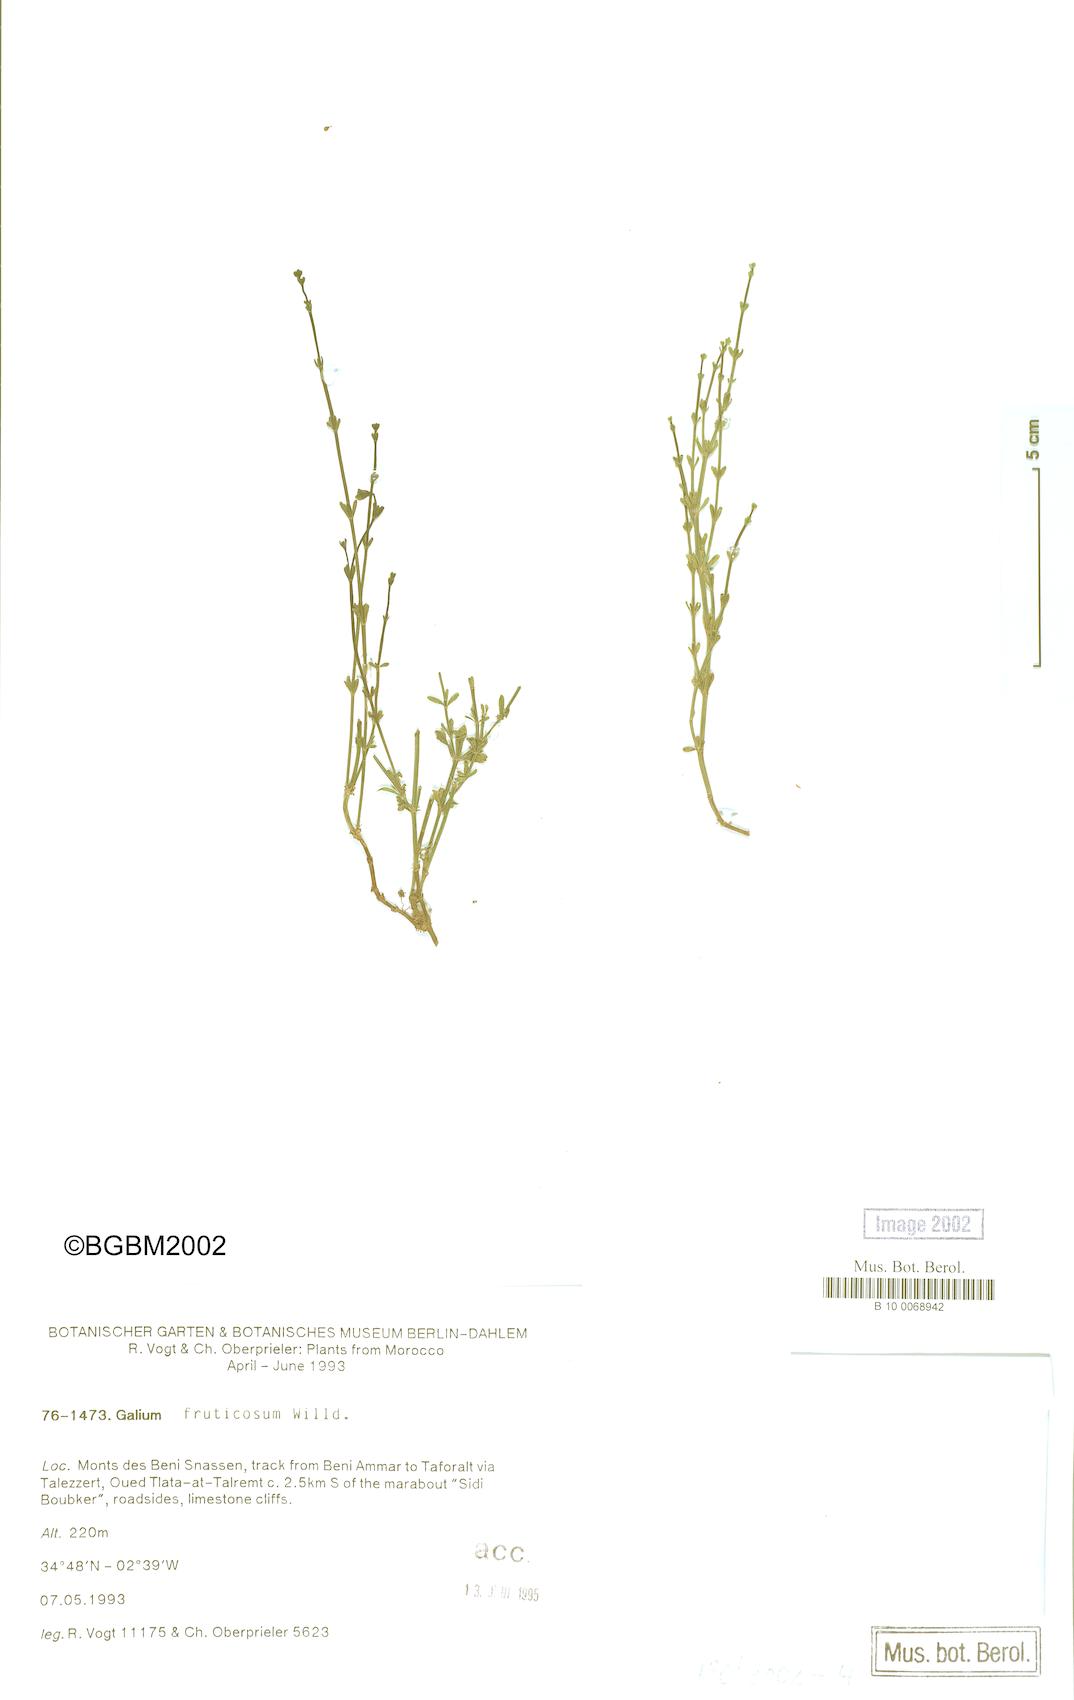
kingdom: Plantae
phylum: Tracheophyta
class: Magnoliopsida
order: Gentianales
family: Rubiaceae
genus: Galium
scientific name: Galium fruticosum
